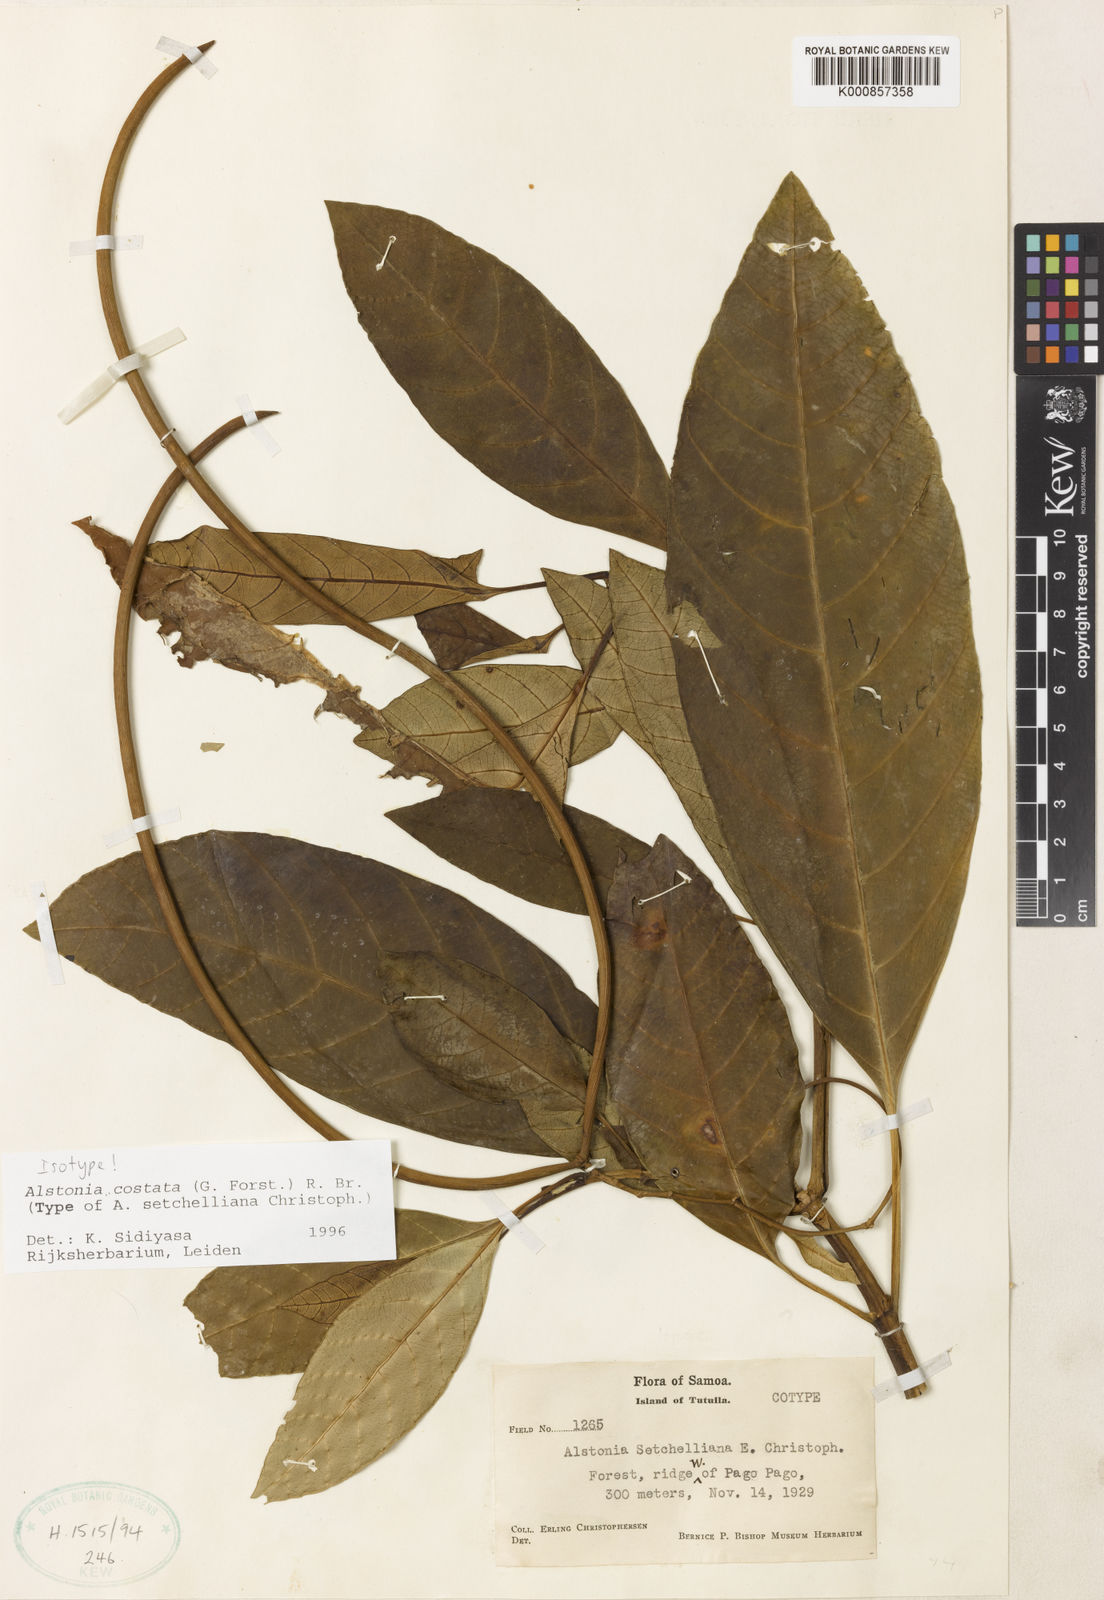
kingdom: Plantae
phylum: Tracheophyta
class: Magnoliopsida
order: Gentianales
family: Apocynaceae
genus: Alstonia
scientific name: Alstonia costata
